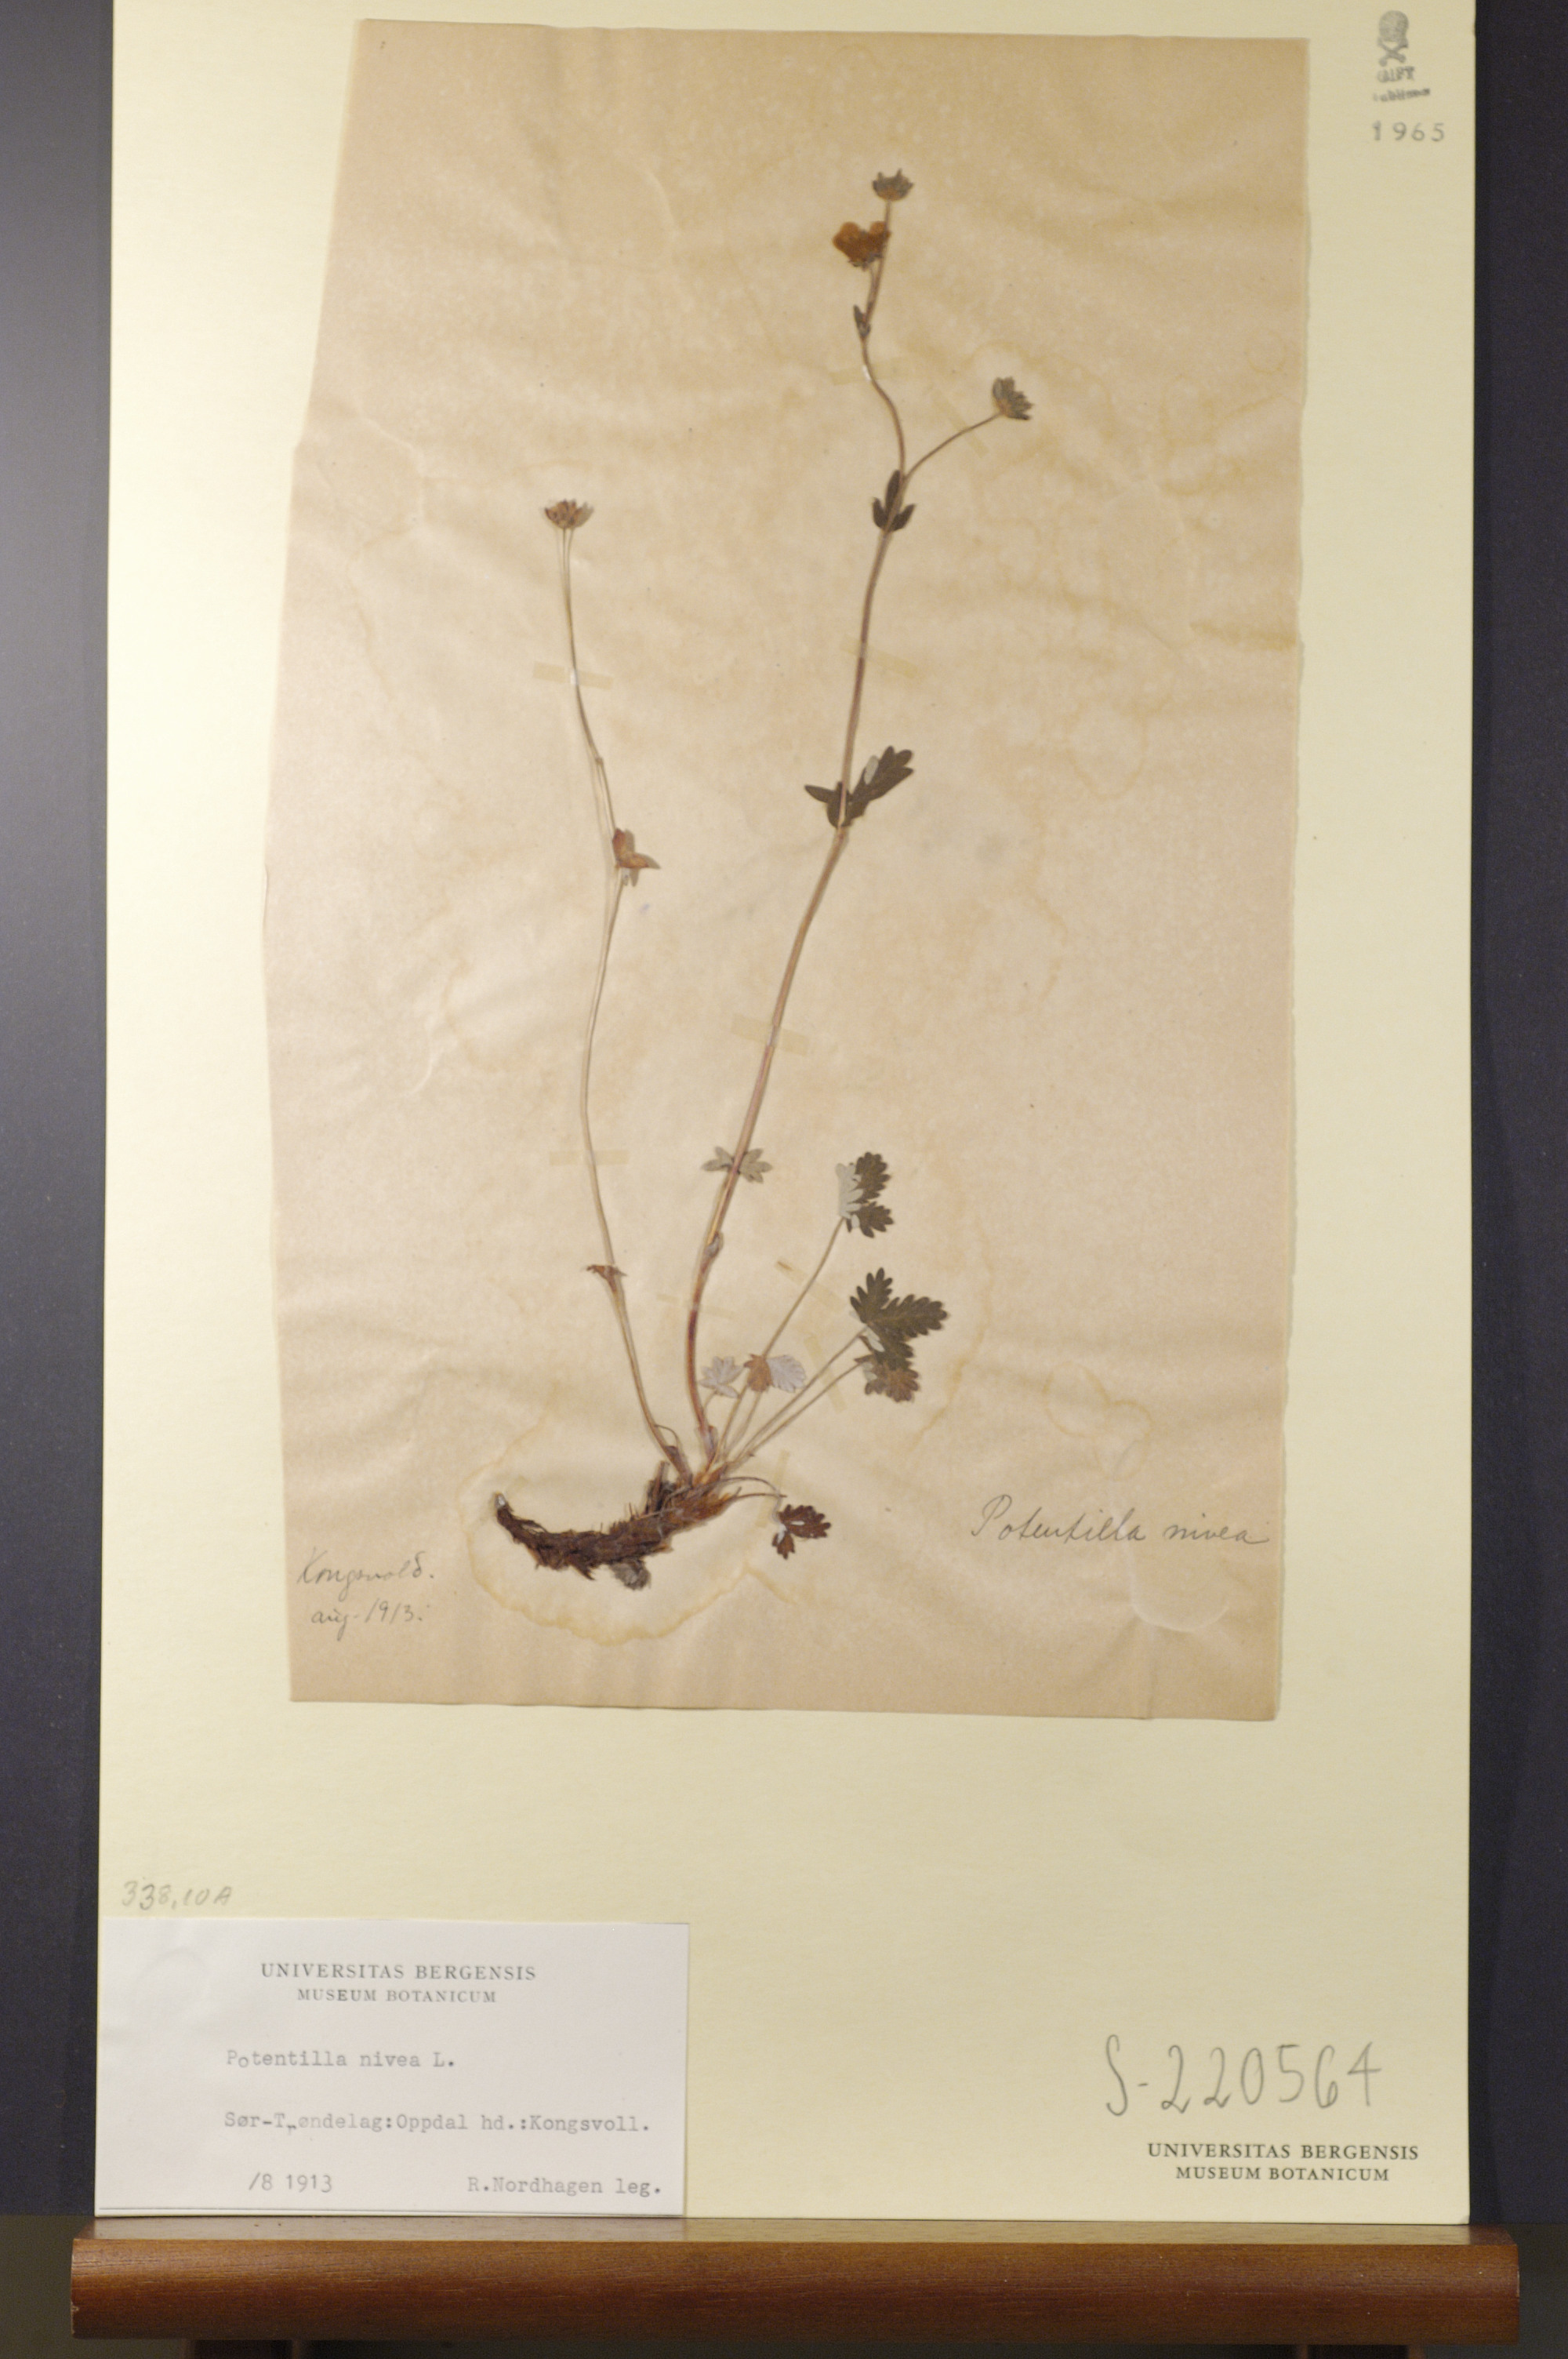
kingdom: Plantae
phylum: Tracheophyta
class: Magnoliopsida
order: Rosales
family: Rosaceae
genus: Potentilla
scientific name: Potentilla arenosa
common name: Bluff cinquefoil
